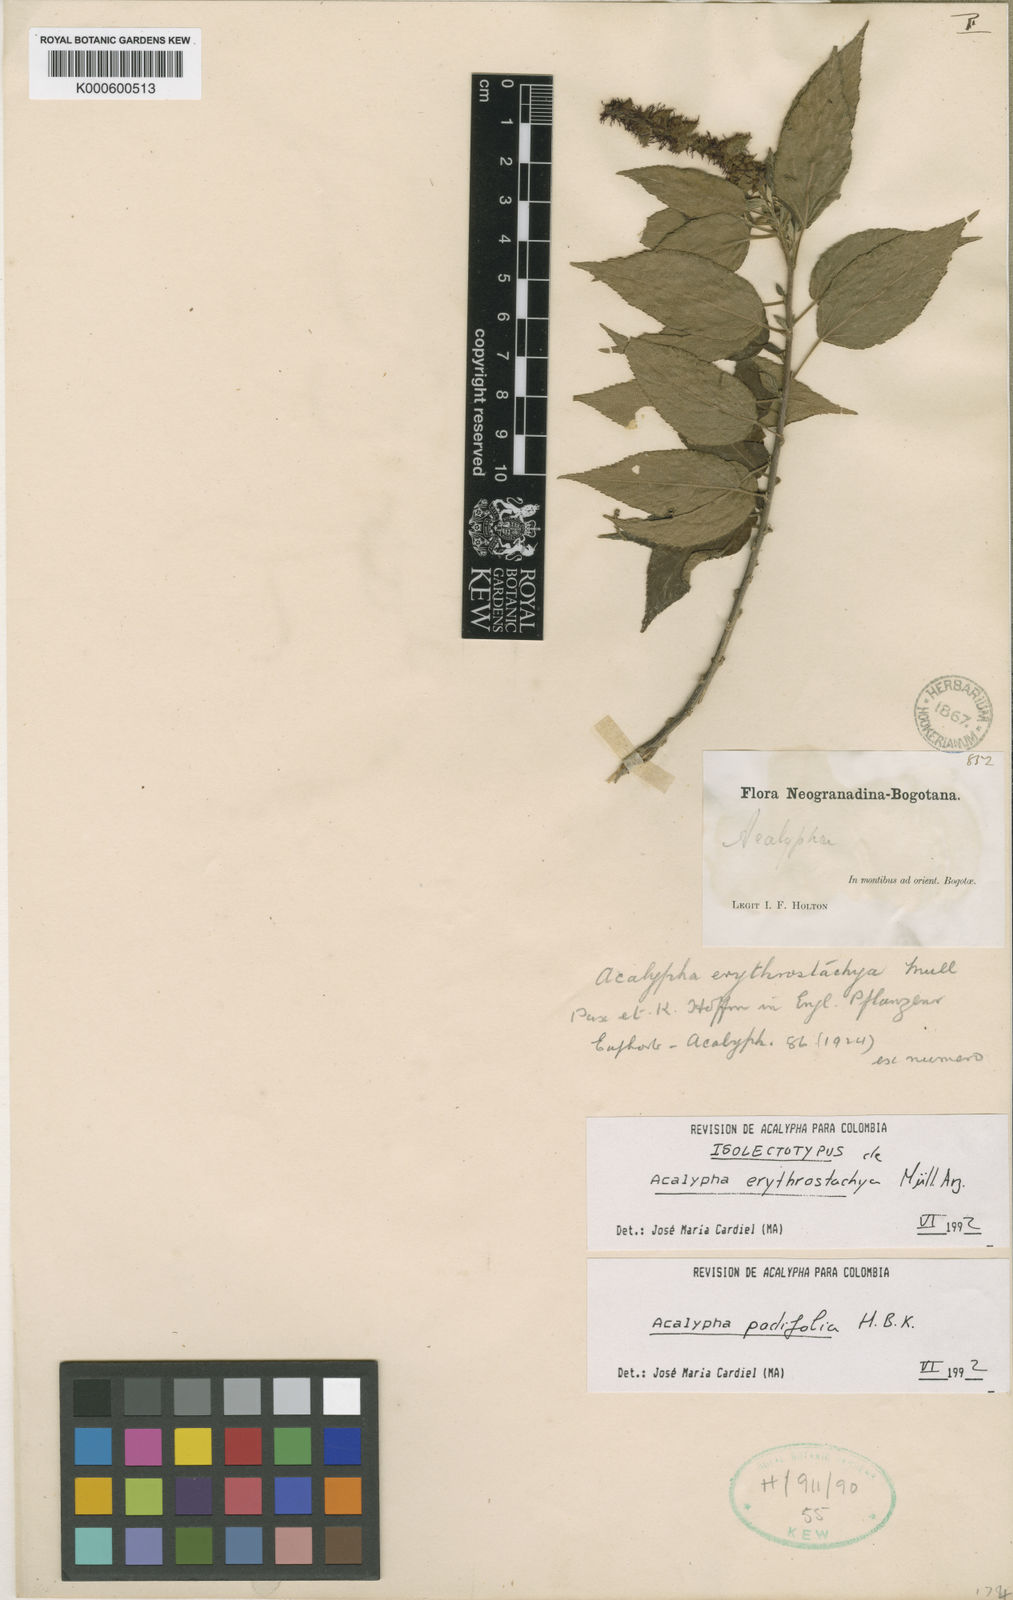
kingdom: Plantae
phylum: Tracheophyta
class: Magnoliopsida
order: Malpighiales
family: Euphorbiaceae
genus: Acalypha
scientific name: Acalypha padifolia
